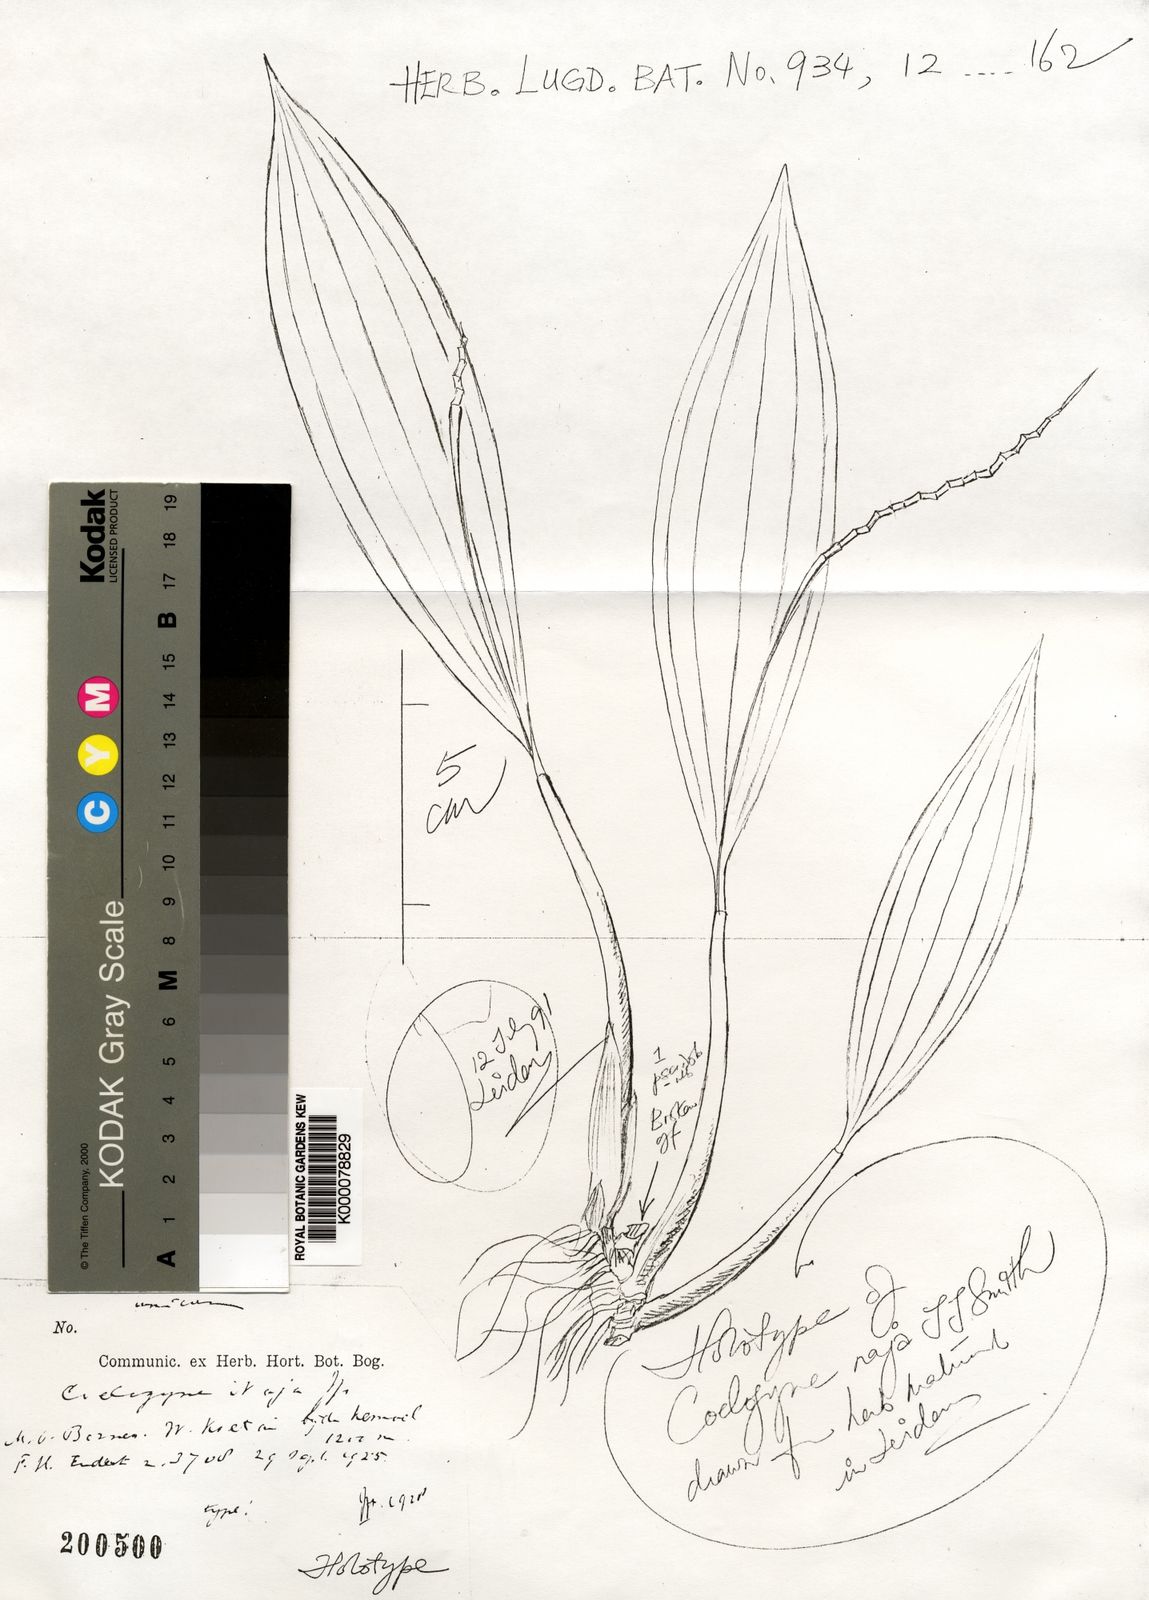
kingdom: Plantae
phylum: Tracheophyta
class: Liliopsida
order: Asparagales
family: Orchidaceae
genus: Coelogyne
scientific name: Coelogyne naja
